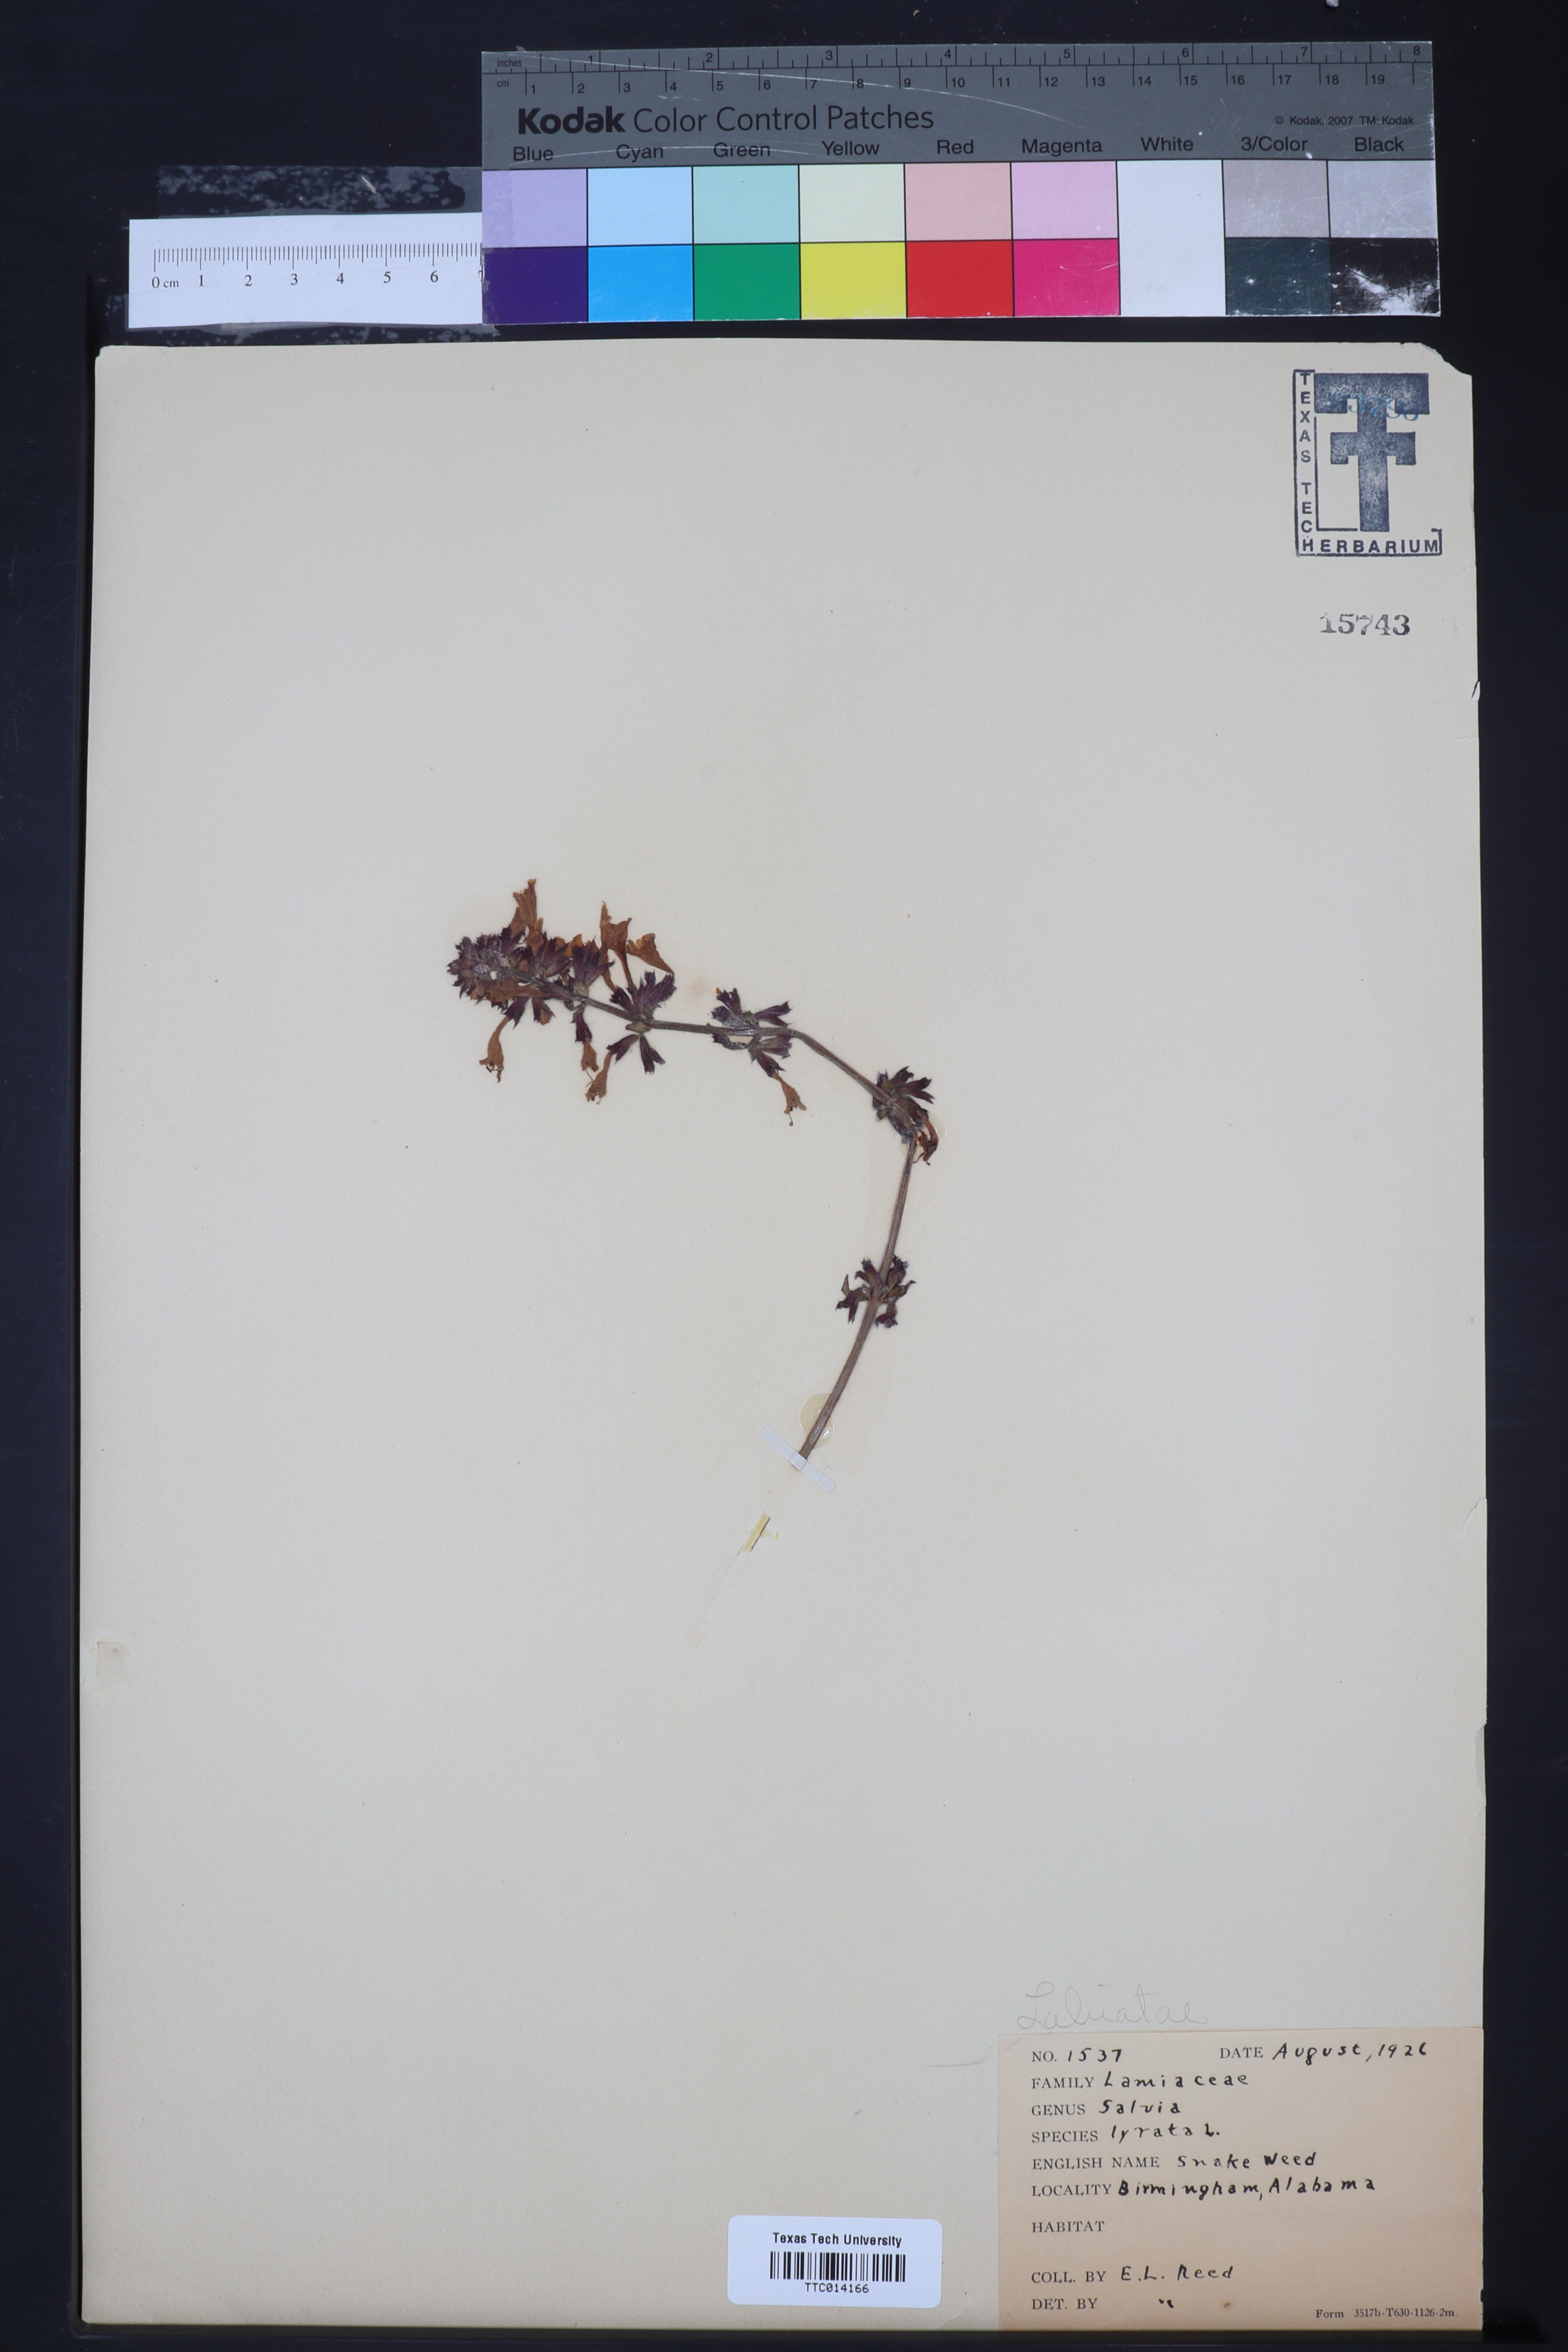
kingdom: Plantae
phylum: Tracheophyta
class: Magnoliopsida
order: Lamiales
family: Lamiaceae
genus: Salvia
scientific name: Salvia lyrata
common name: Cancerweed
